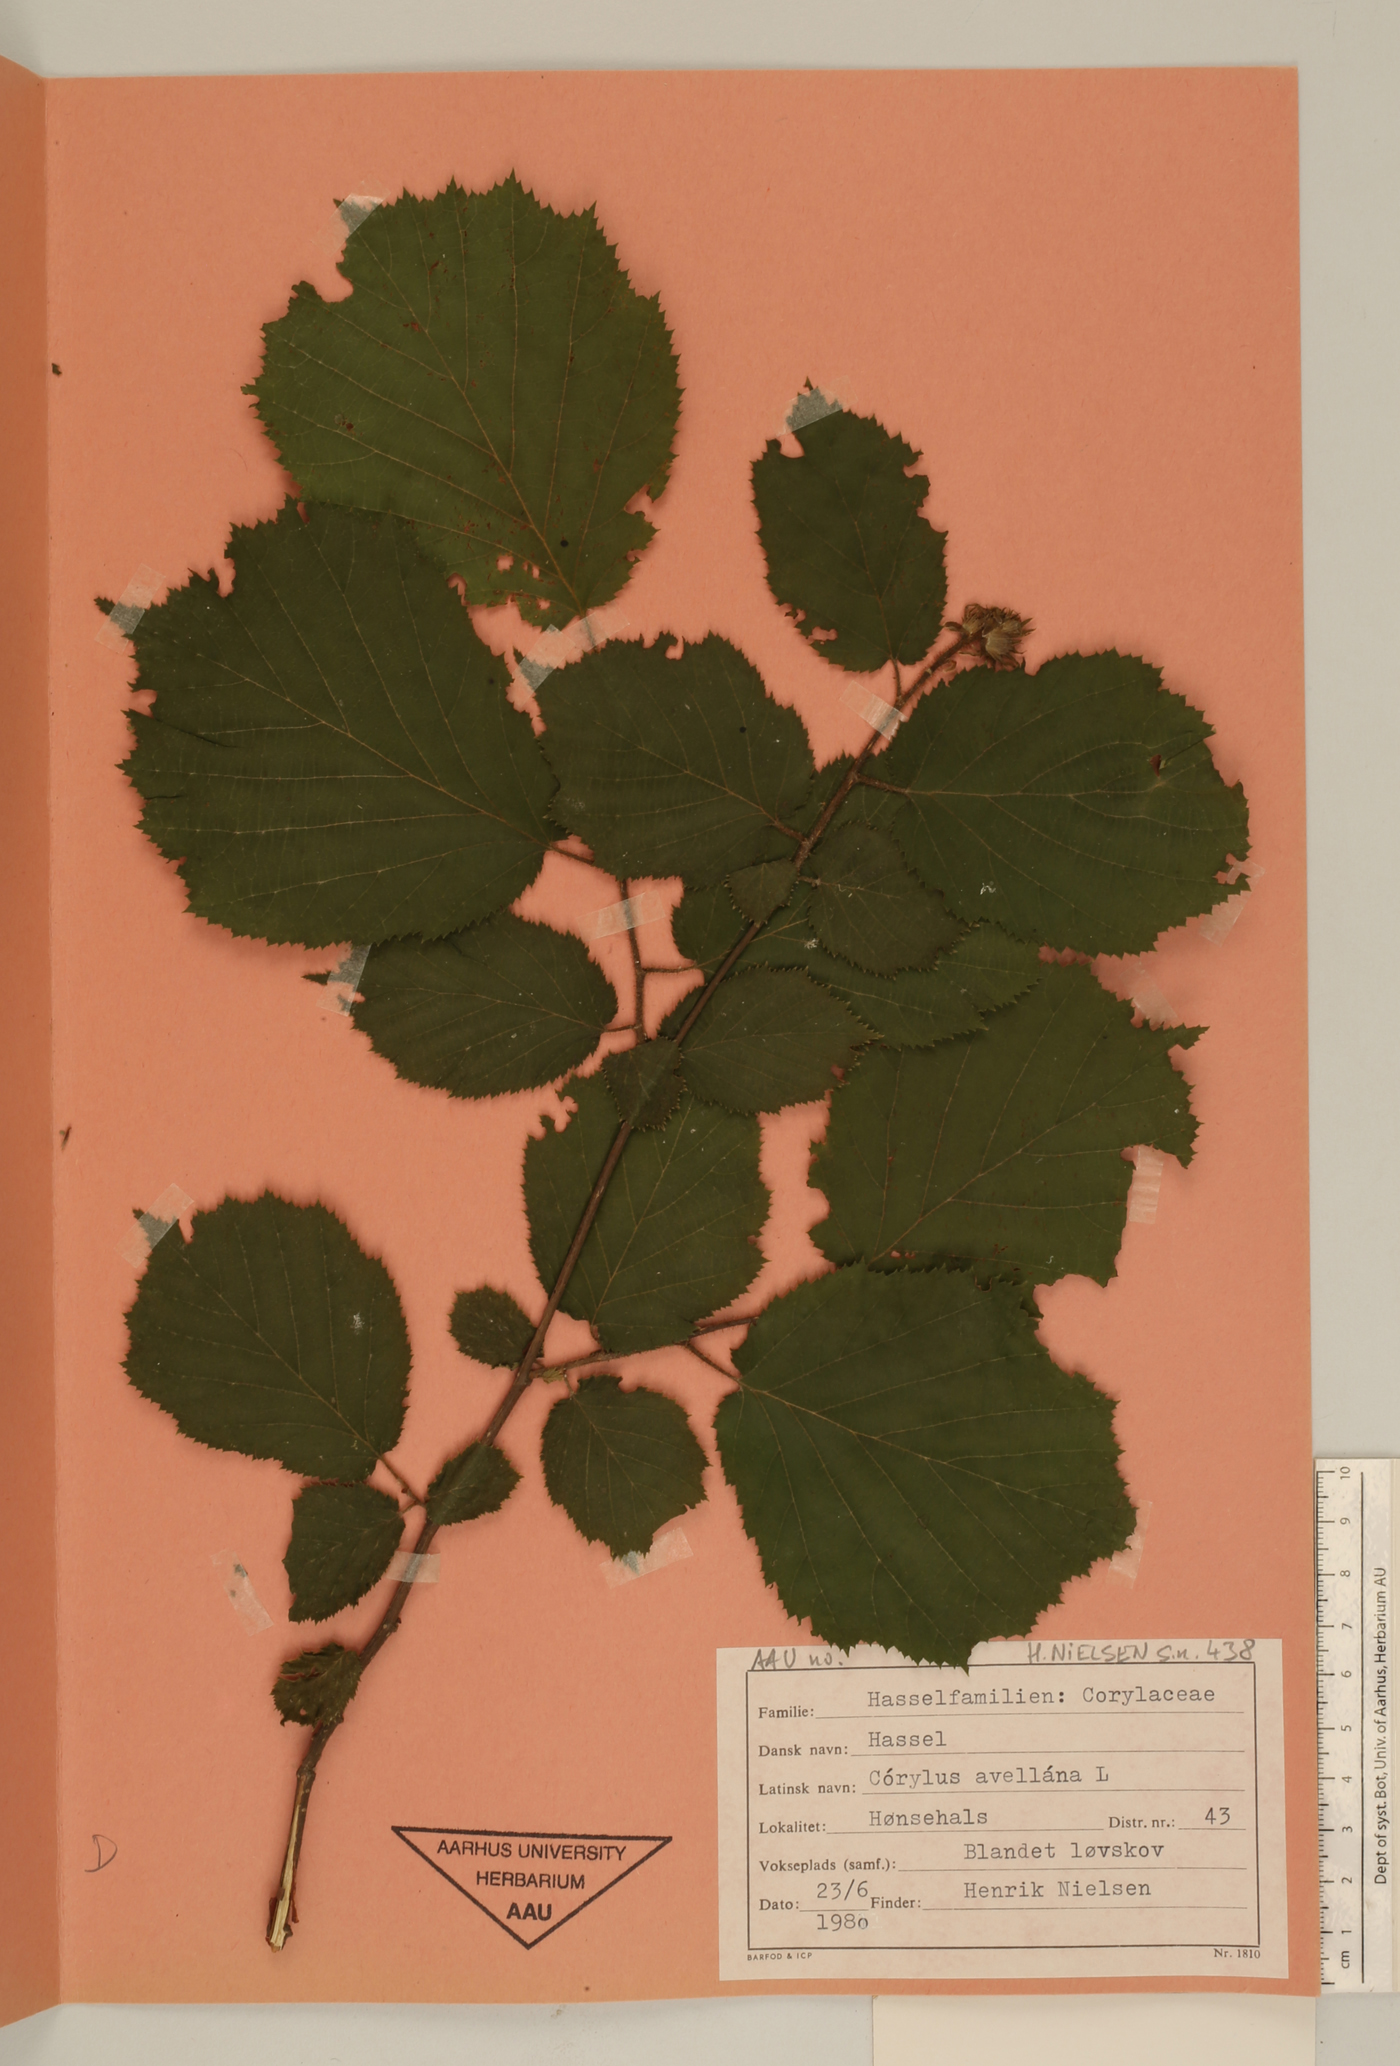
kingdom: Plantae
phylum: Tracheophyta
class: Magnoliopsida
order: Fagales
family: Betulaceae
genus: Corylus
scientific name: Corylus avellana
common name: European hazel
